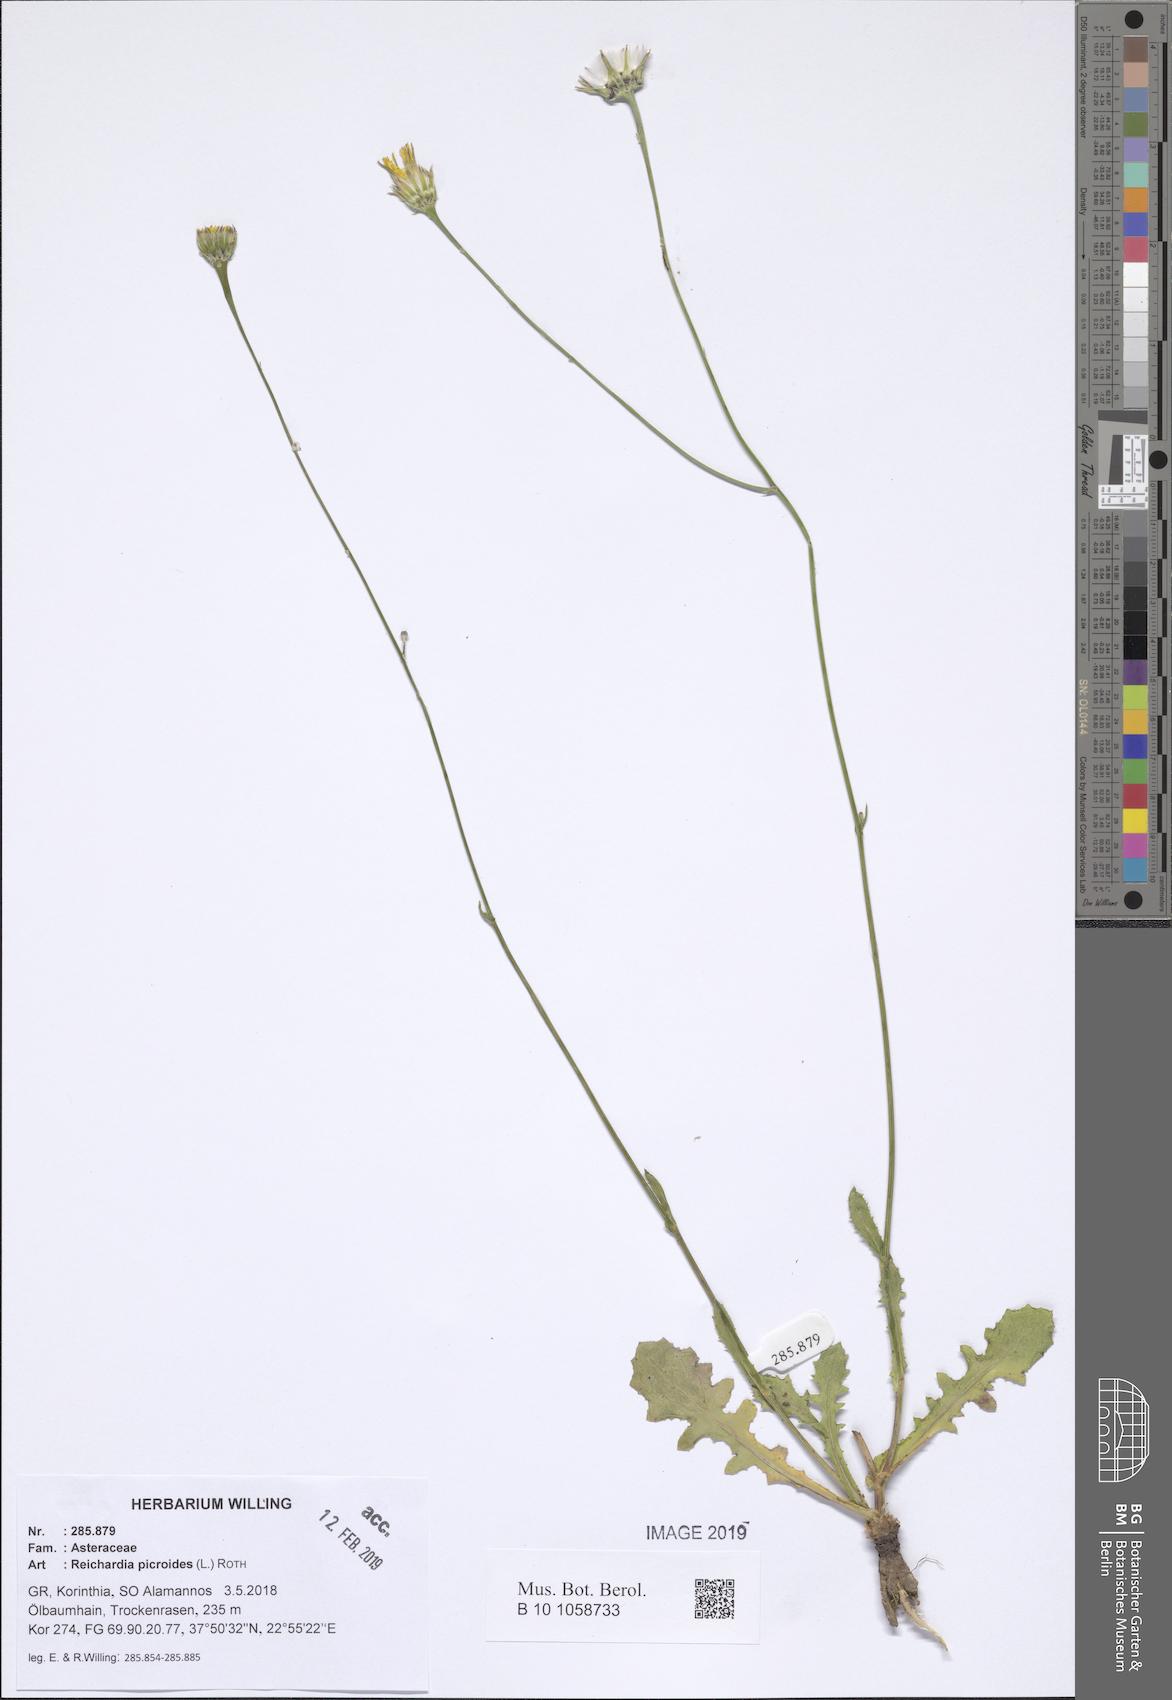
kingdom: Plantae
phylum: Tracheophyta
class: Magnoliopsida
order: Asterales
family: Asteraceae
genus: Reichardia
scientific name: Reichardia picroides
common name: Common brighteyes
